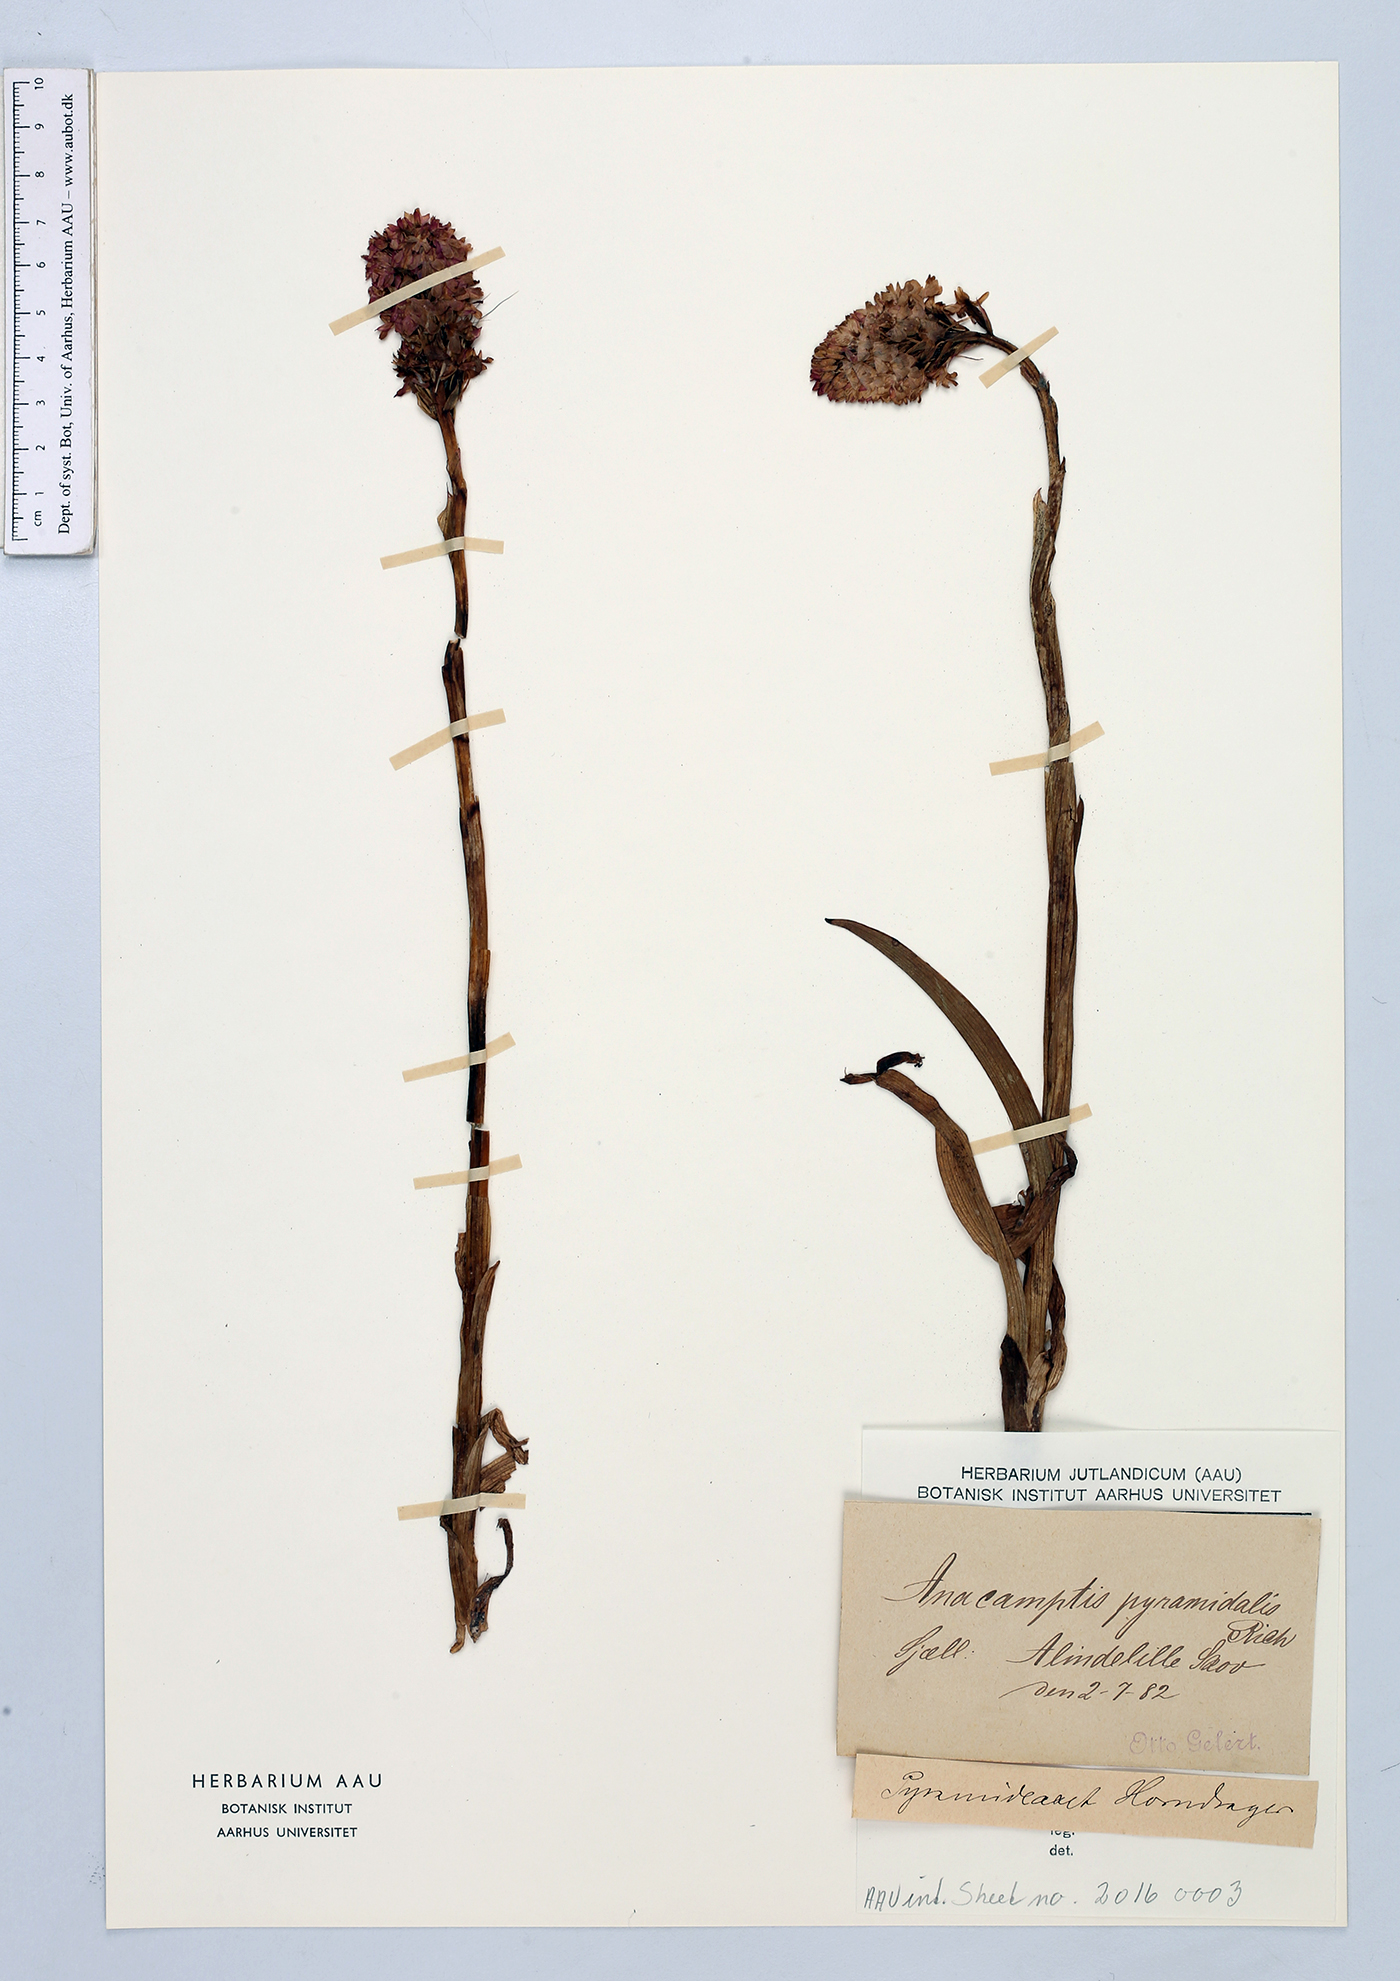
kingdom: Plantae
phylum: Tracheophyta
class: Liliopsida
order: Asparagales
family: Orchidaceae
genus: Anacamptis
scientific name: Anacamptis pyramidalis
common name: Pyramidal orchid
